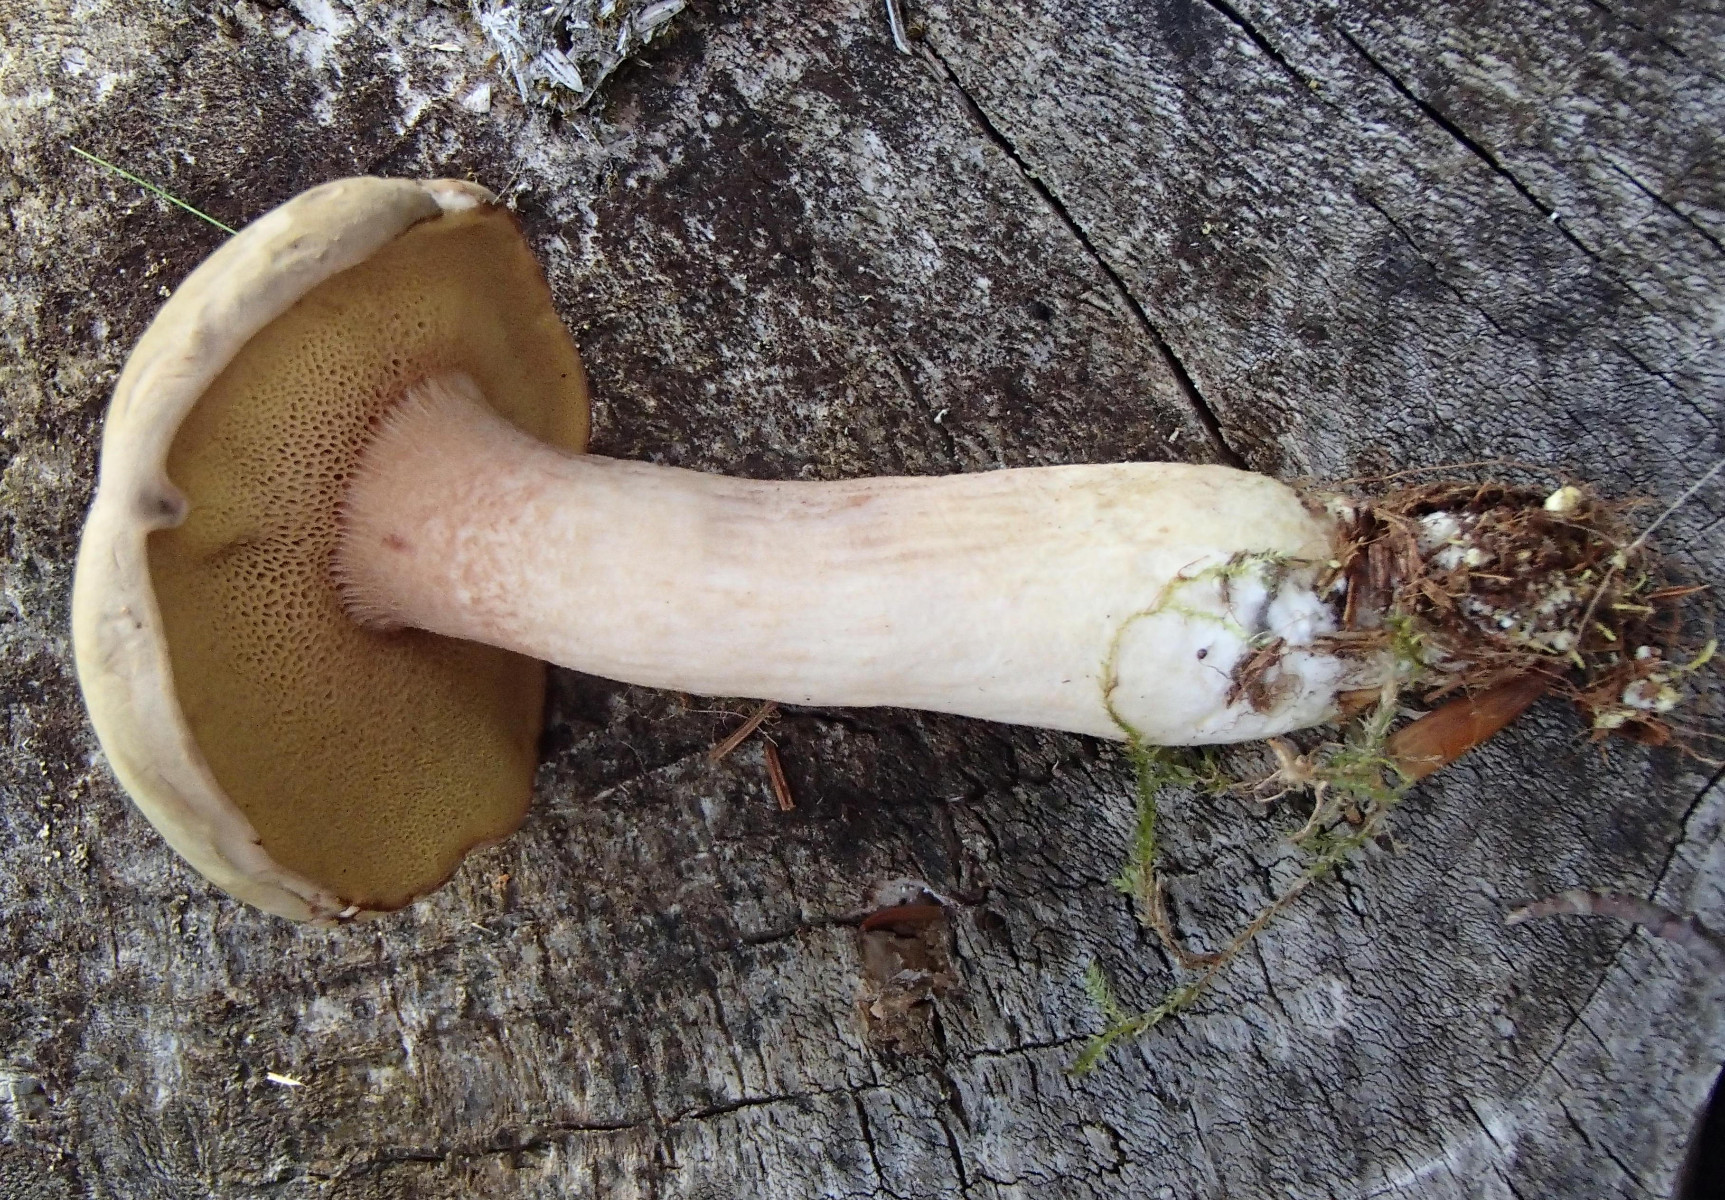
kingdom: Fungi
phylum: Basidiomycota
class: Agaricomycetes
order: Boletales
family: Boletaceae
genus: Xerocomus
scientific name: Xerocomus
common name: filtrørhat
